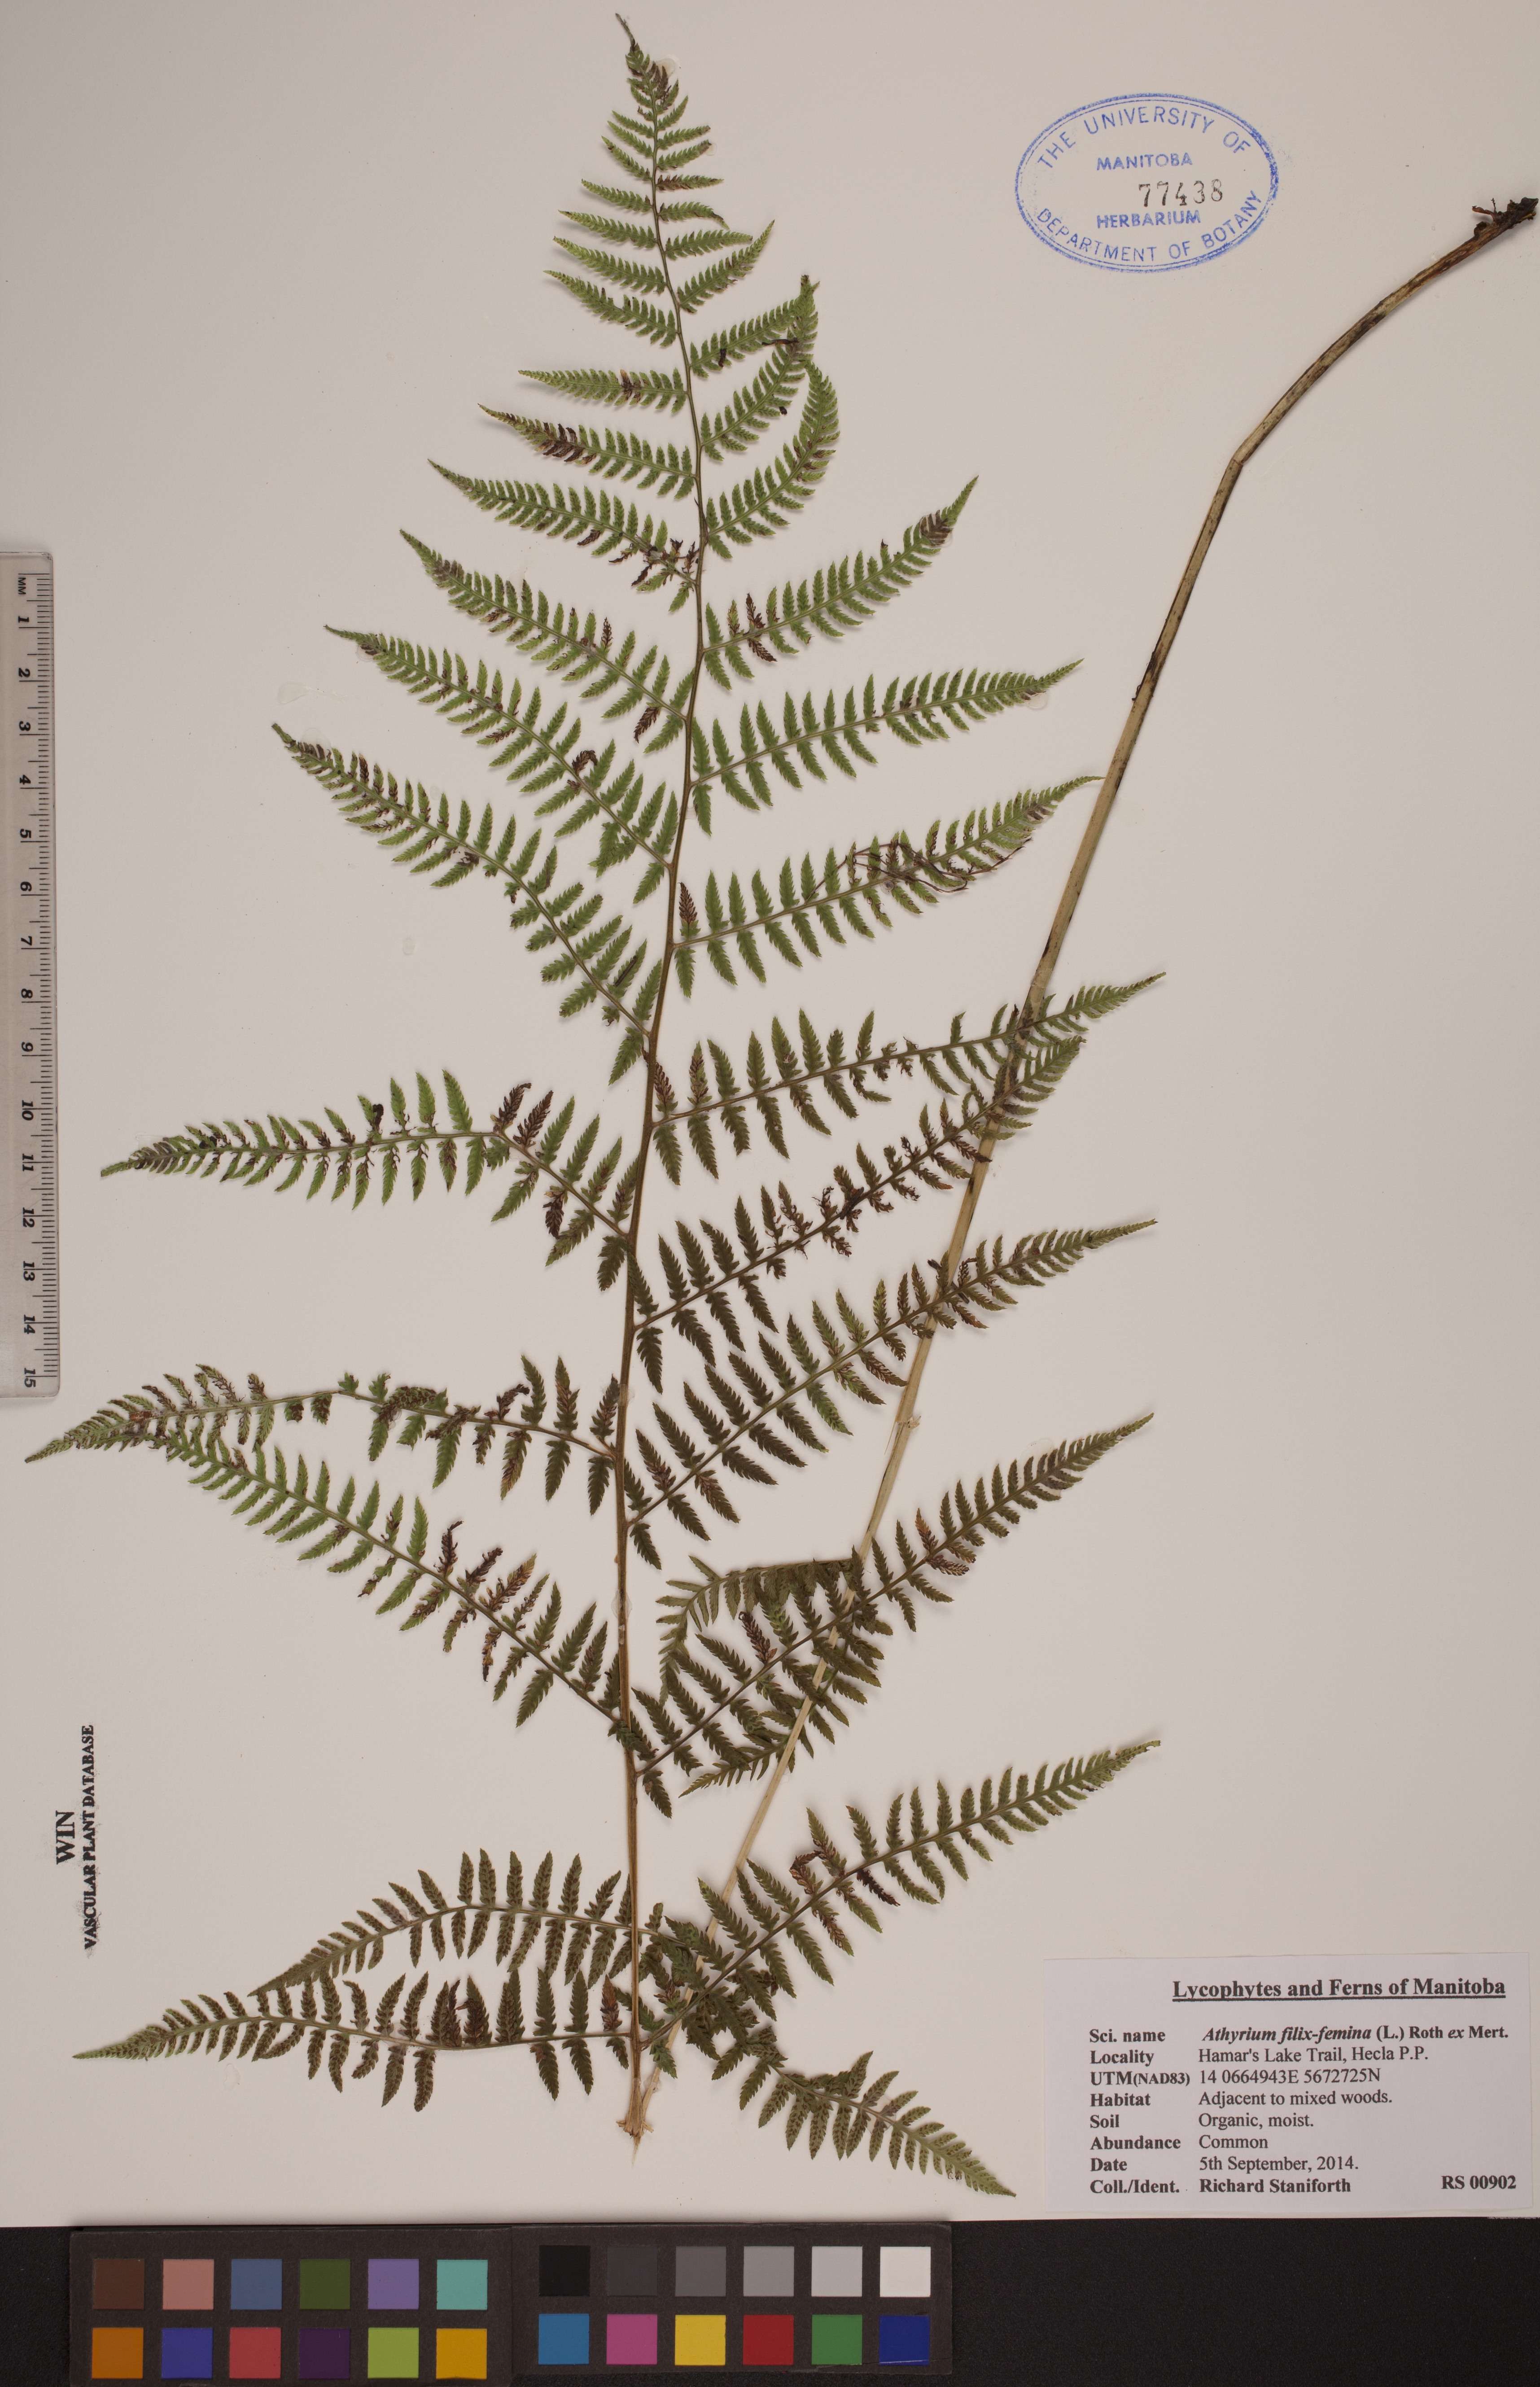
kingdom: Plantae
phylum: Tracheophyta
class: Polypodiopsida
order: Polypodiales
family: Athyriaceae
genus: Athyrium
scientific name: Athyrium filix-femina
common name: Lady fern
